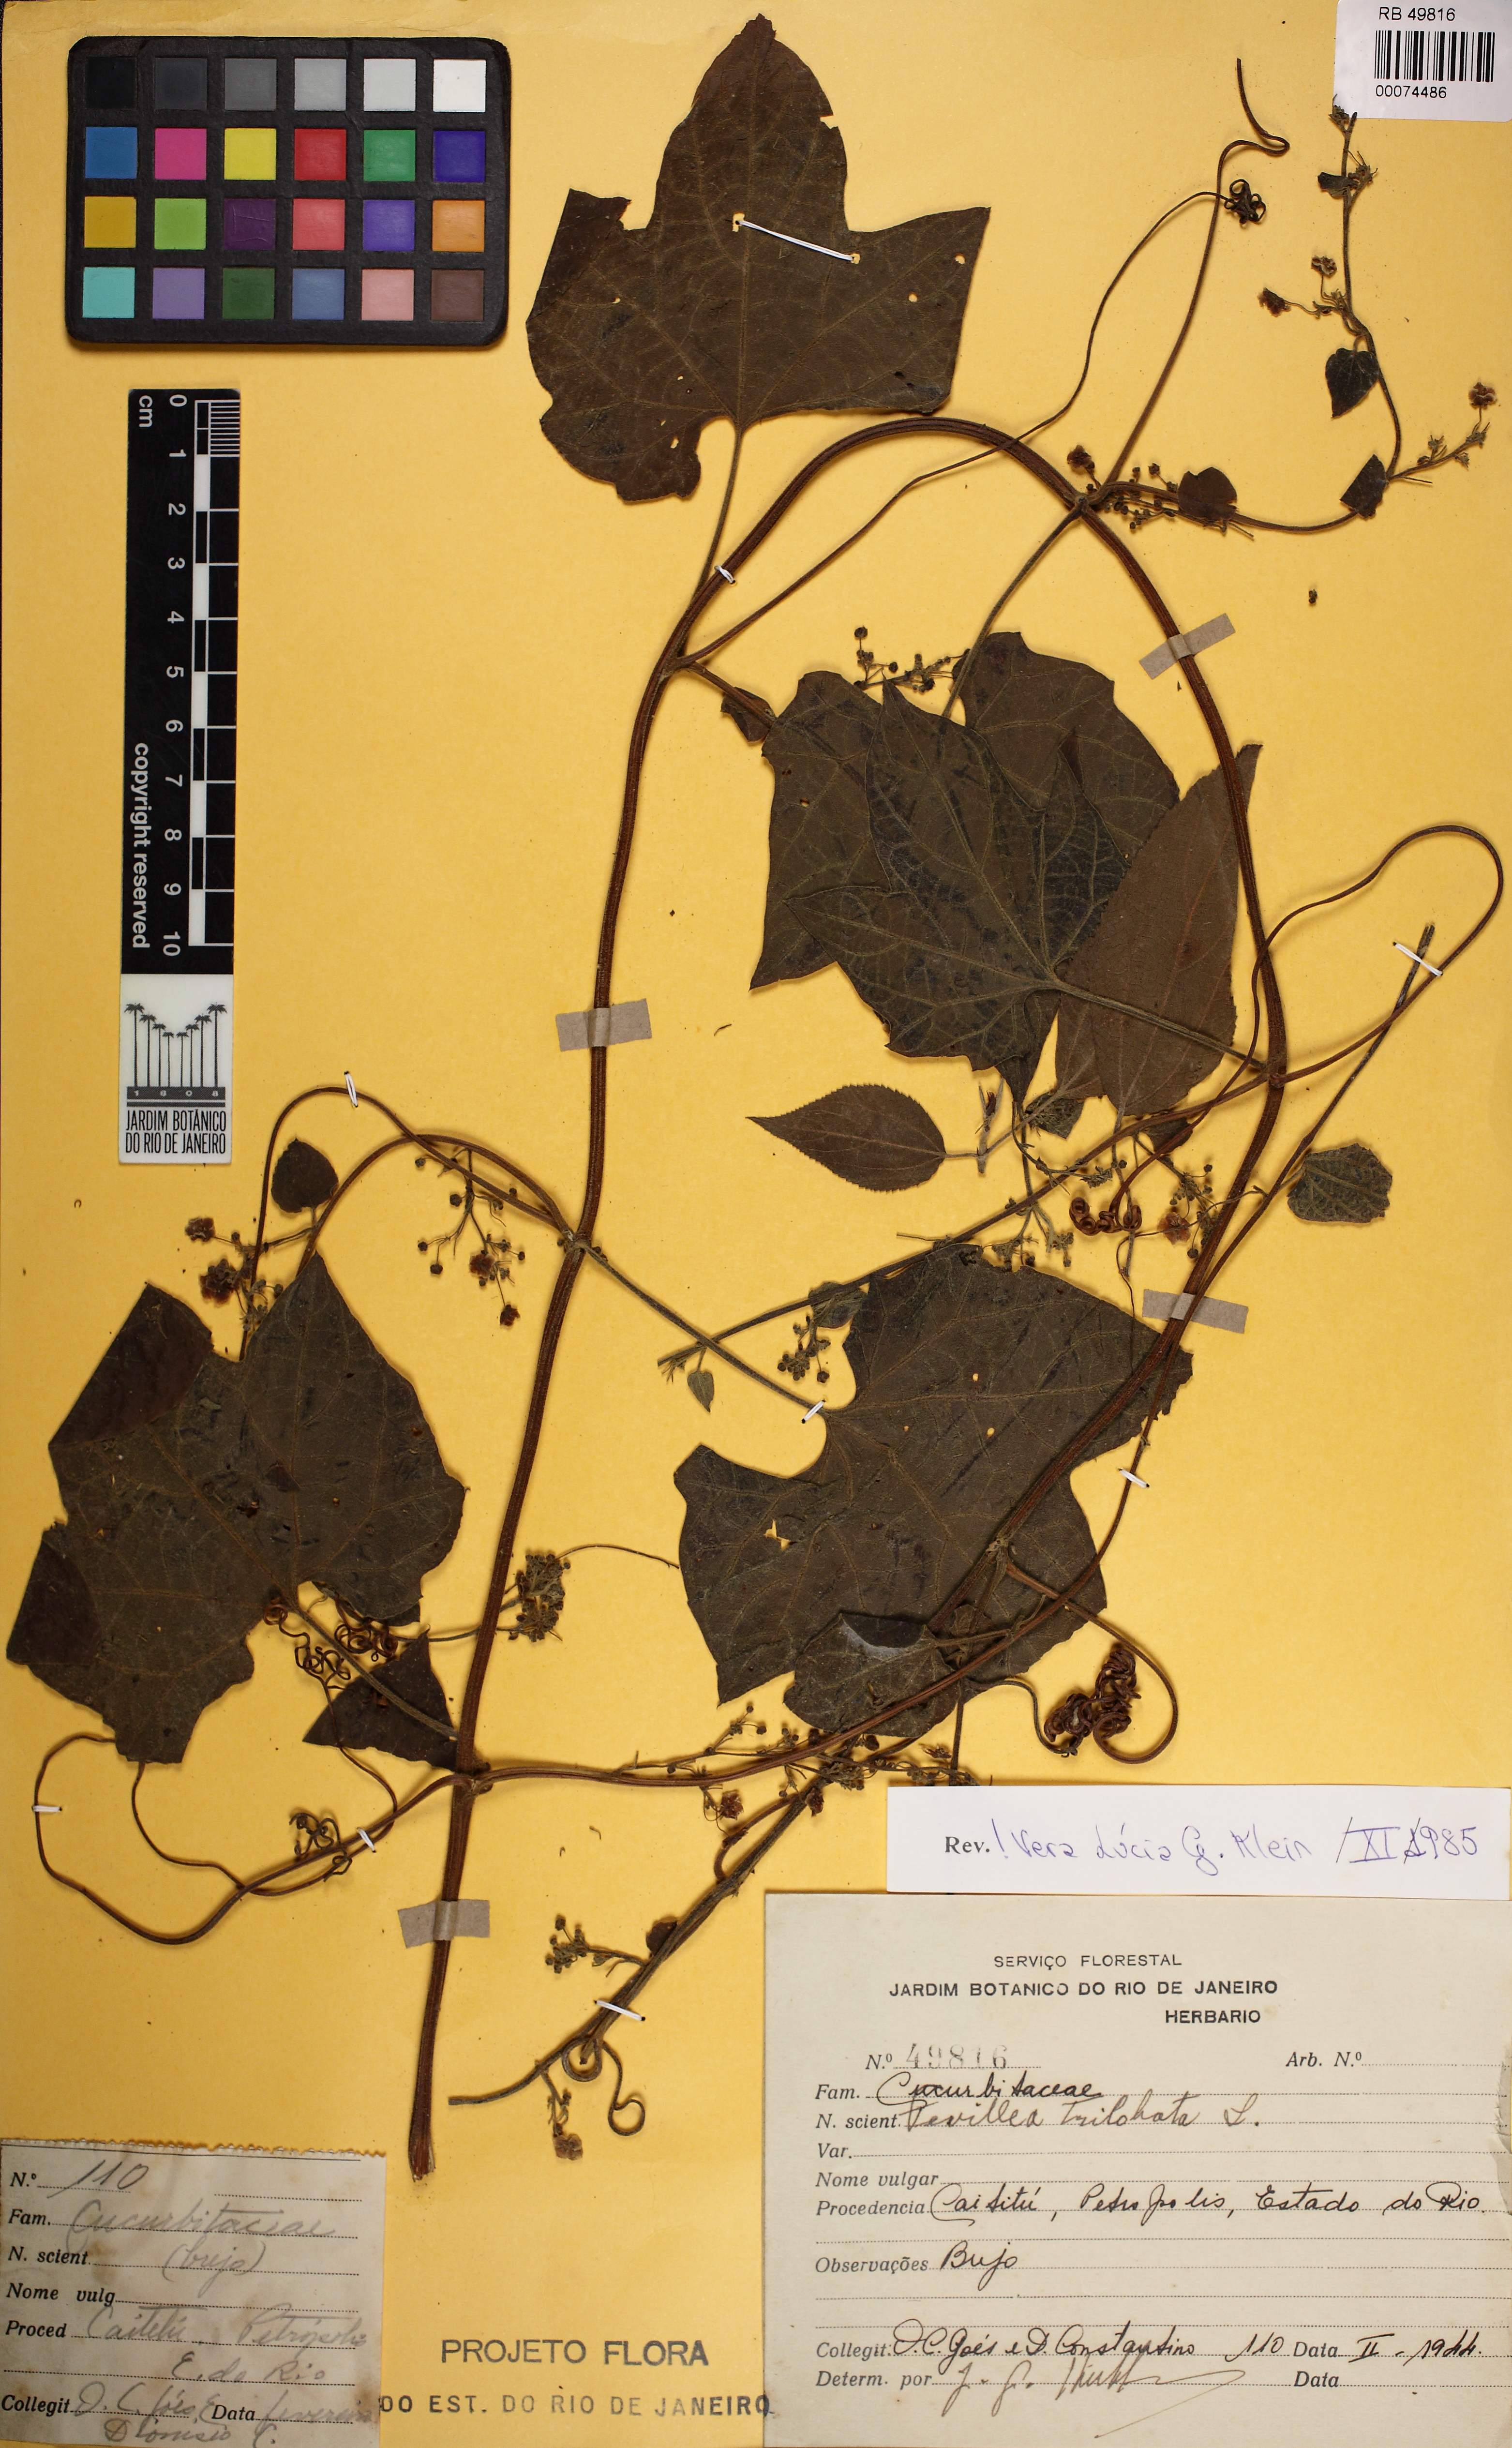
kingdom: Plantae
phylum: Tracheophyta
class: Magnoliopsida
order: Cucurbitales
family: Cucurbitaceae
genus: Fevillea
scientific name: Fevillea trilobata
